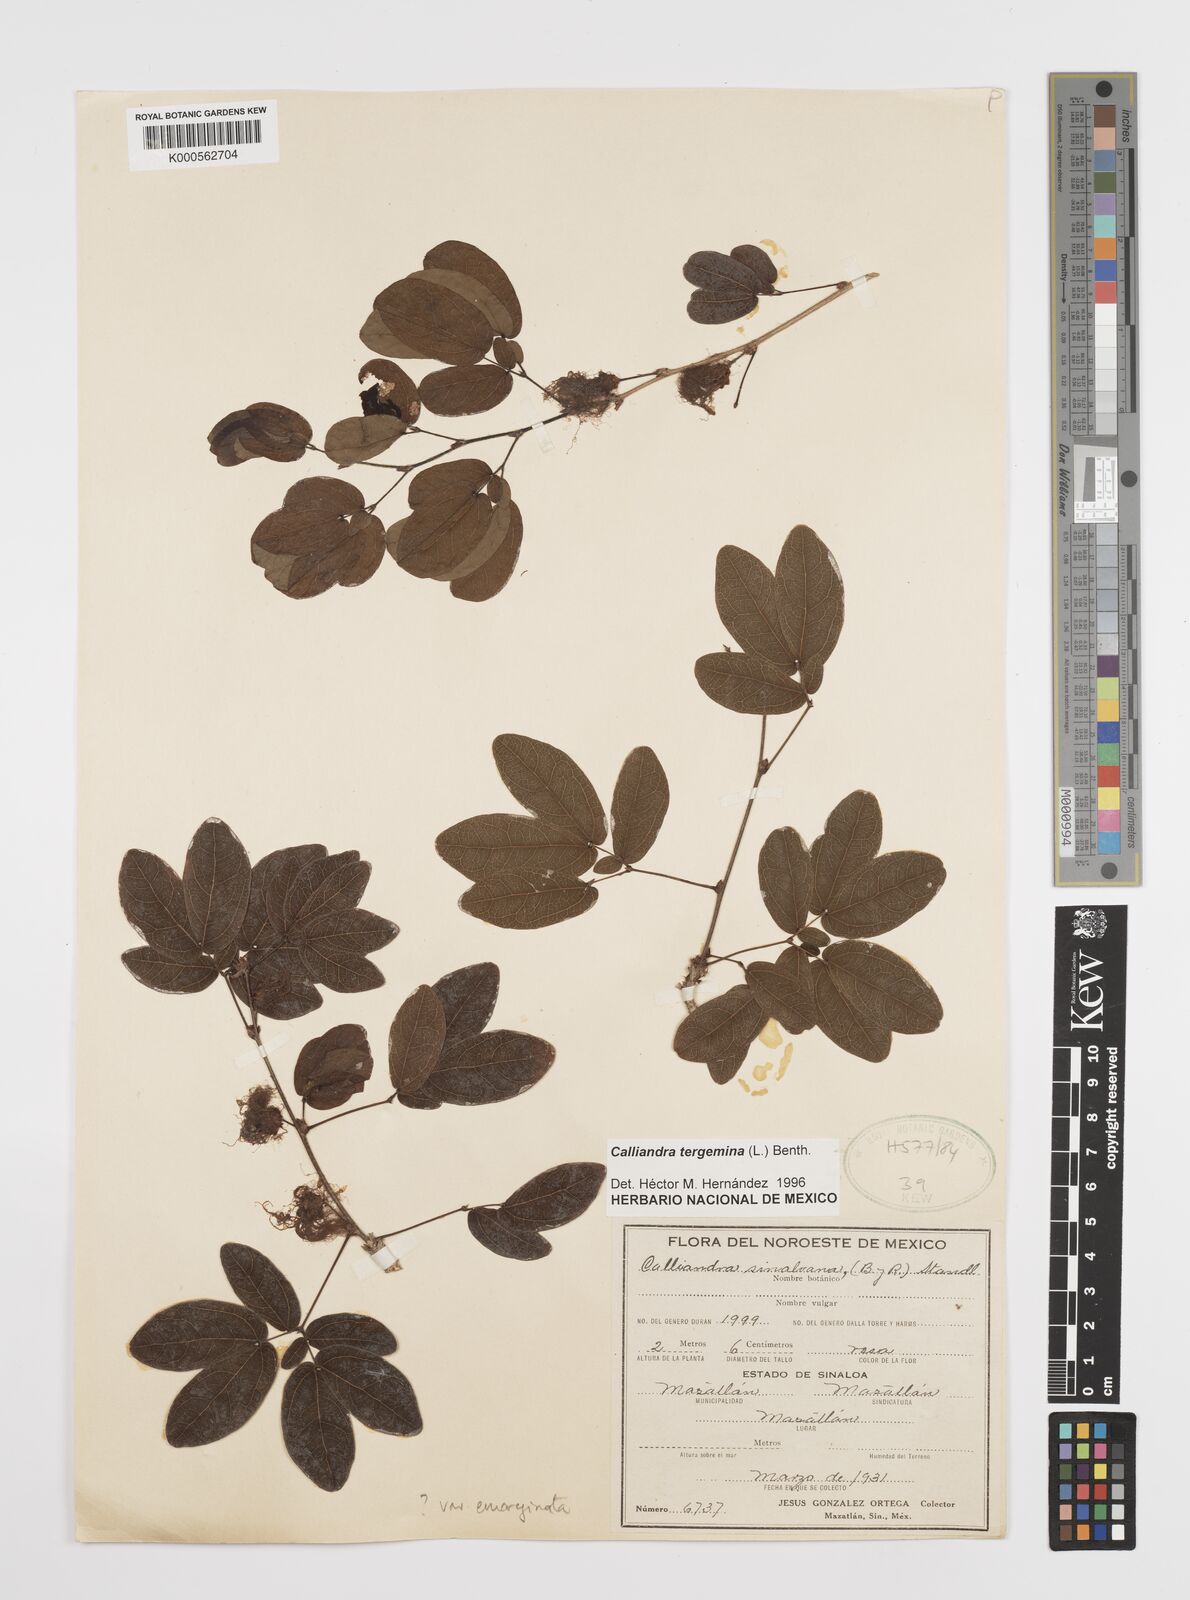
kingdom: Plantae
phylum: Tracheophyta
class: Magnoliopsida
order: Fabales
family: Fabaceae
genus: Calliandra
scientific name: Calliandra tergemina
